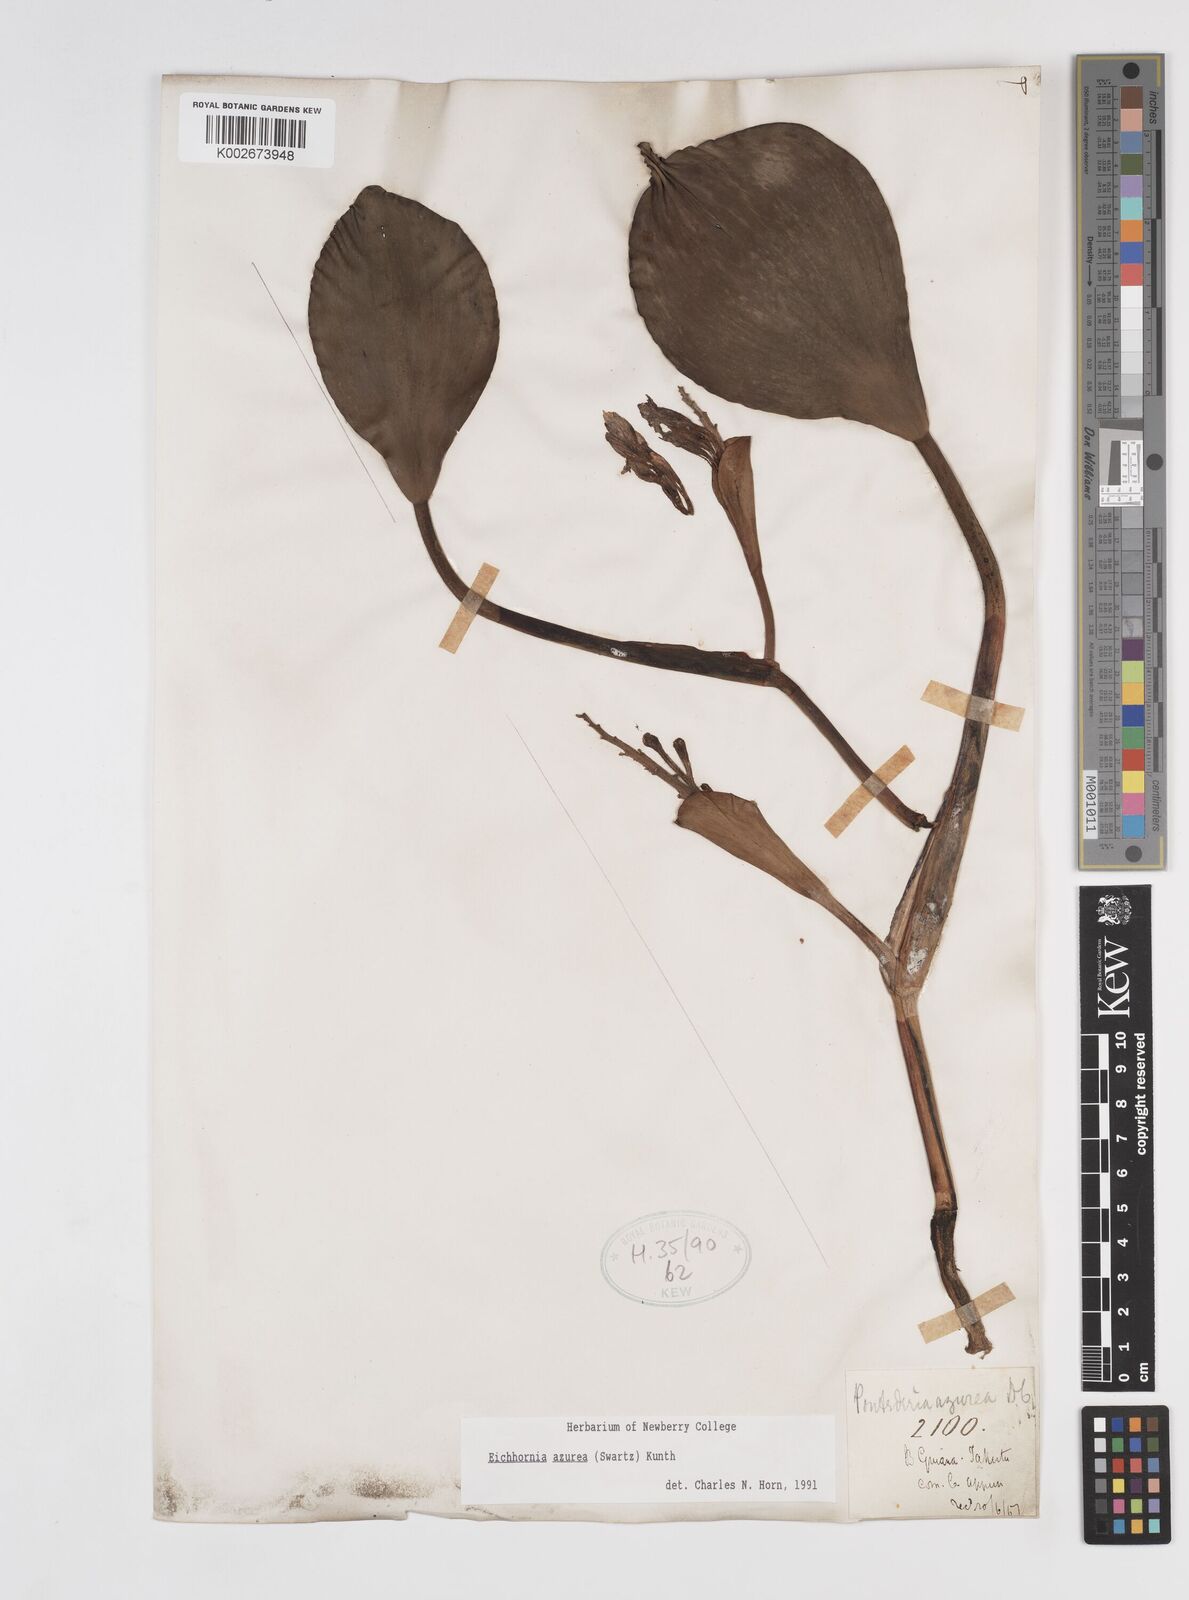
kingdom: Plantae
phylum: Tracheophyta
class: Liliopsida
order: Commelinales
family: Pontederiaceae
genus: Pontederia
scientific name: Pontederia azurea
